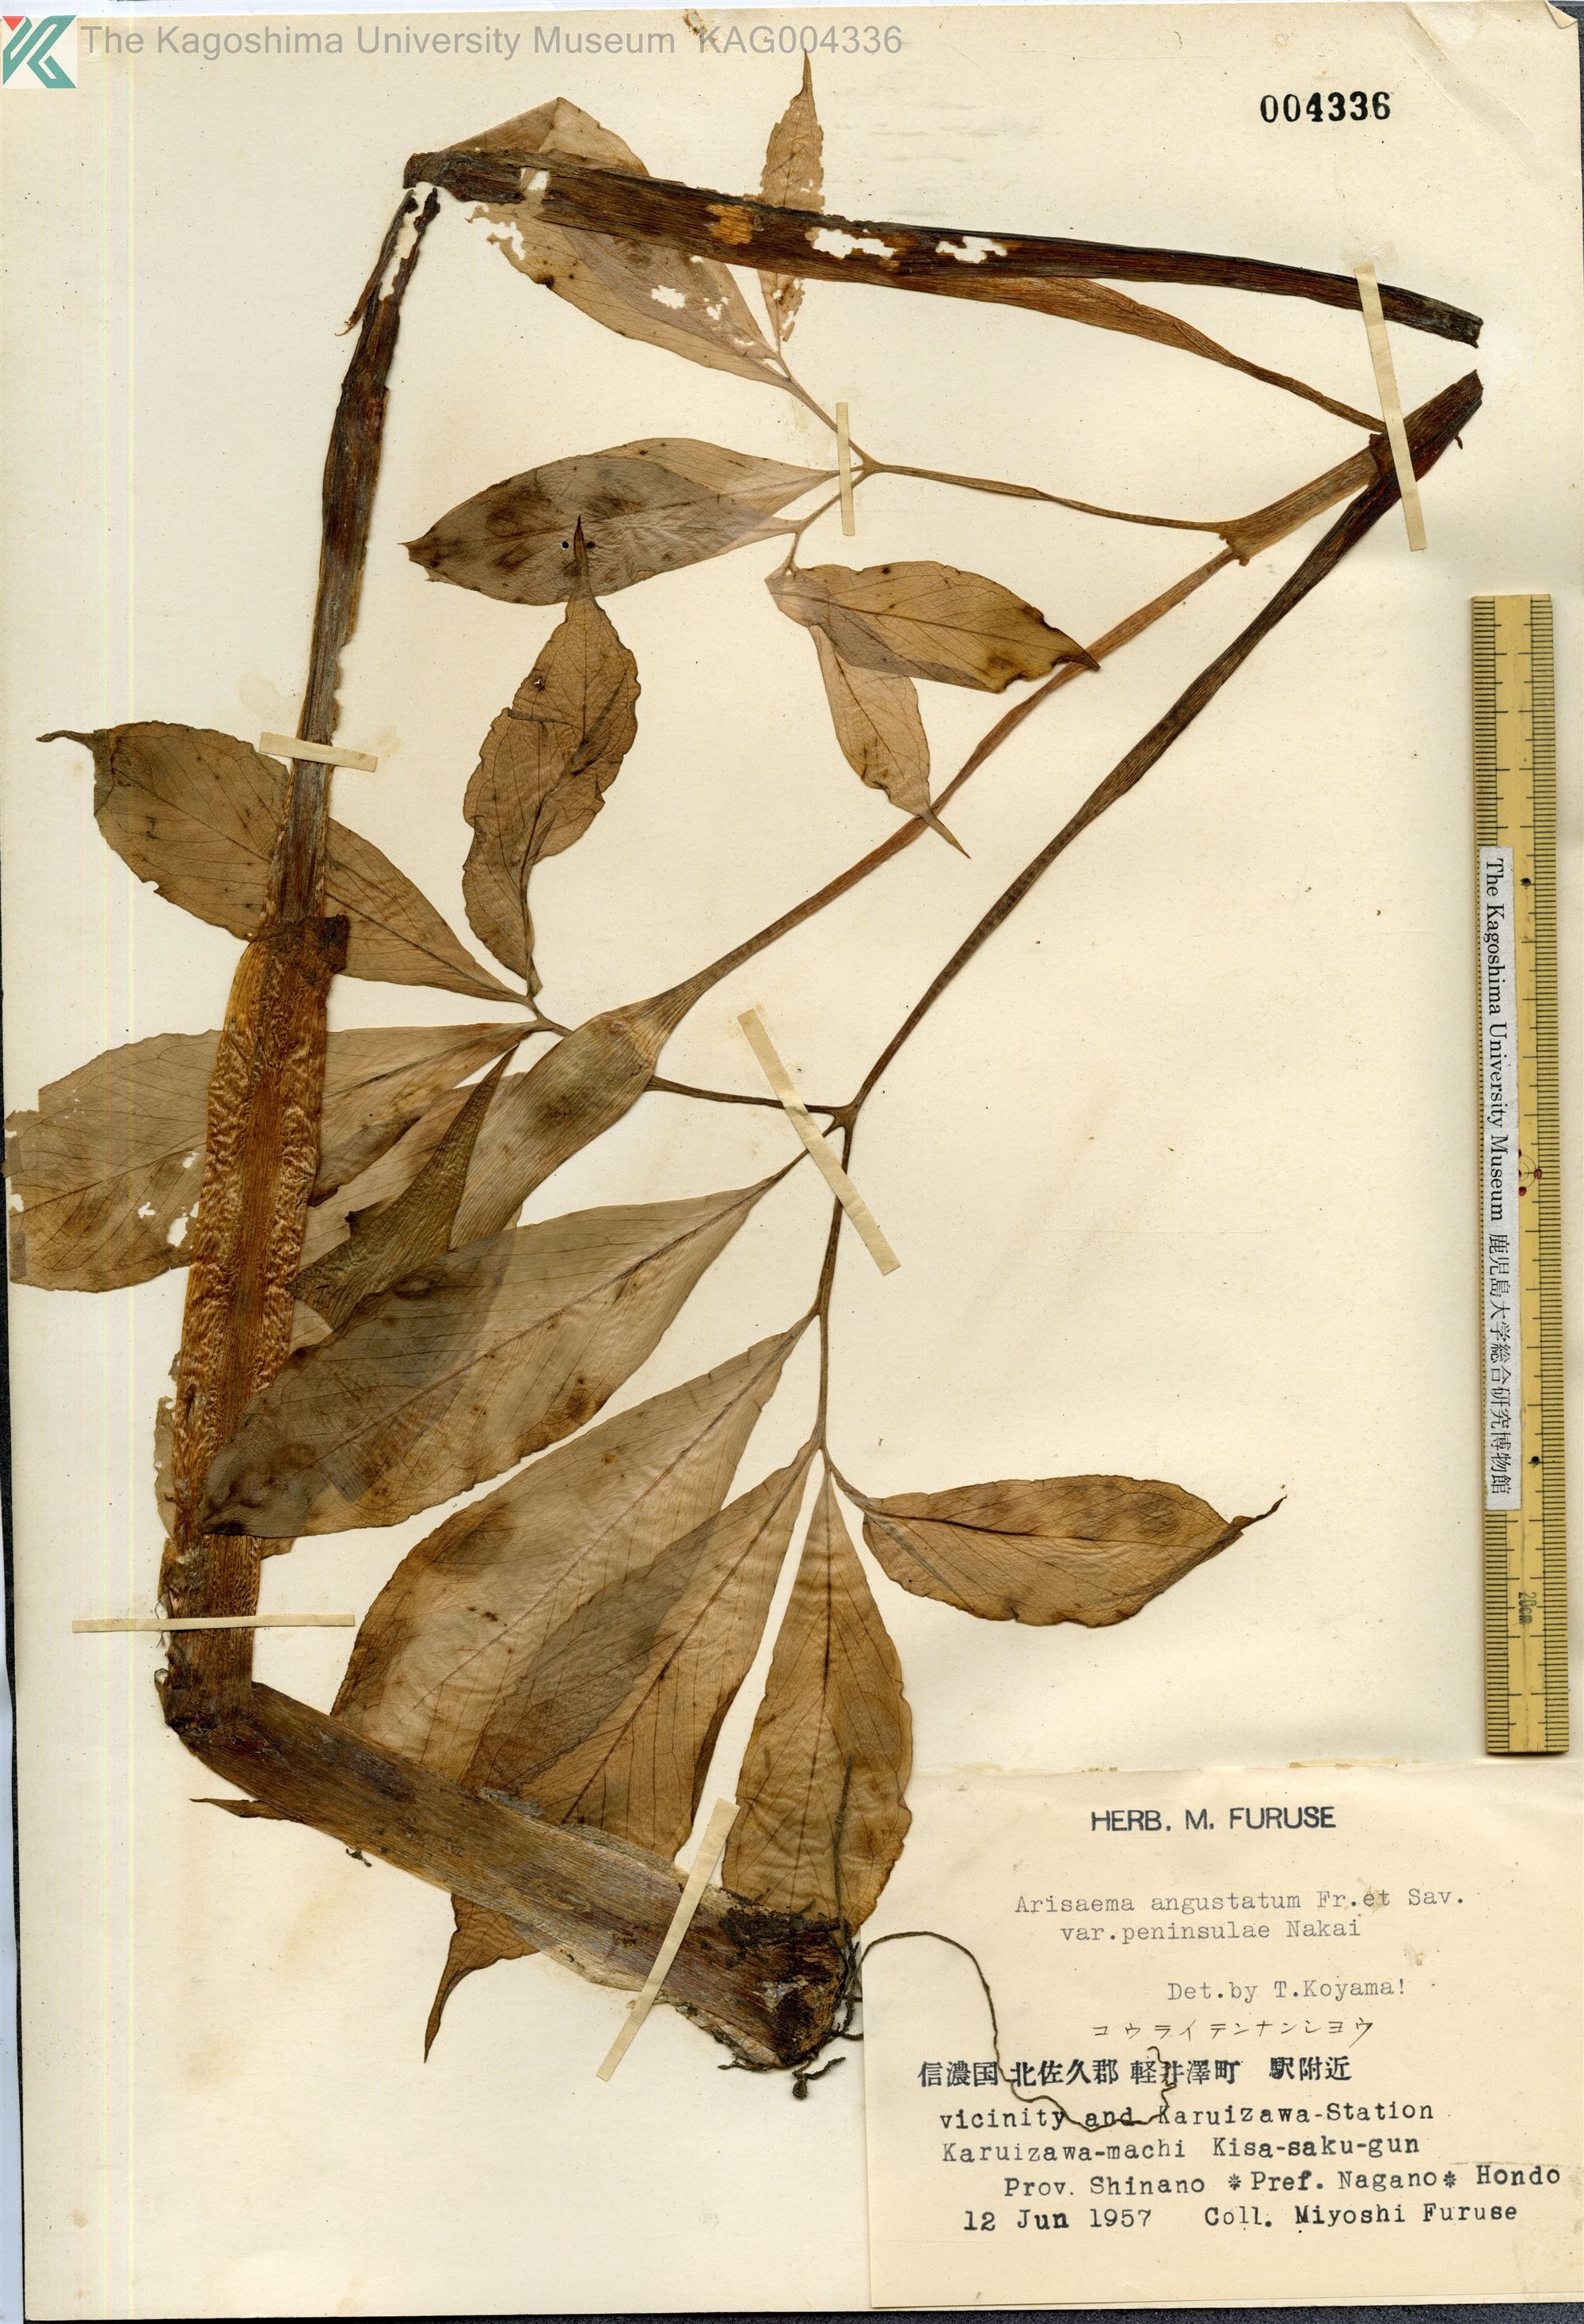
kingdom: Plantae
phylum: Tracheophyta
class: Liliopsida
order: Alismatales
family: Araceae
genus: Arisaema
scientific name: Arisaema serratum
